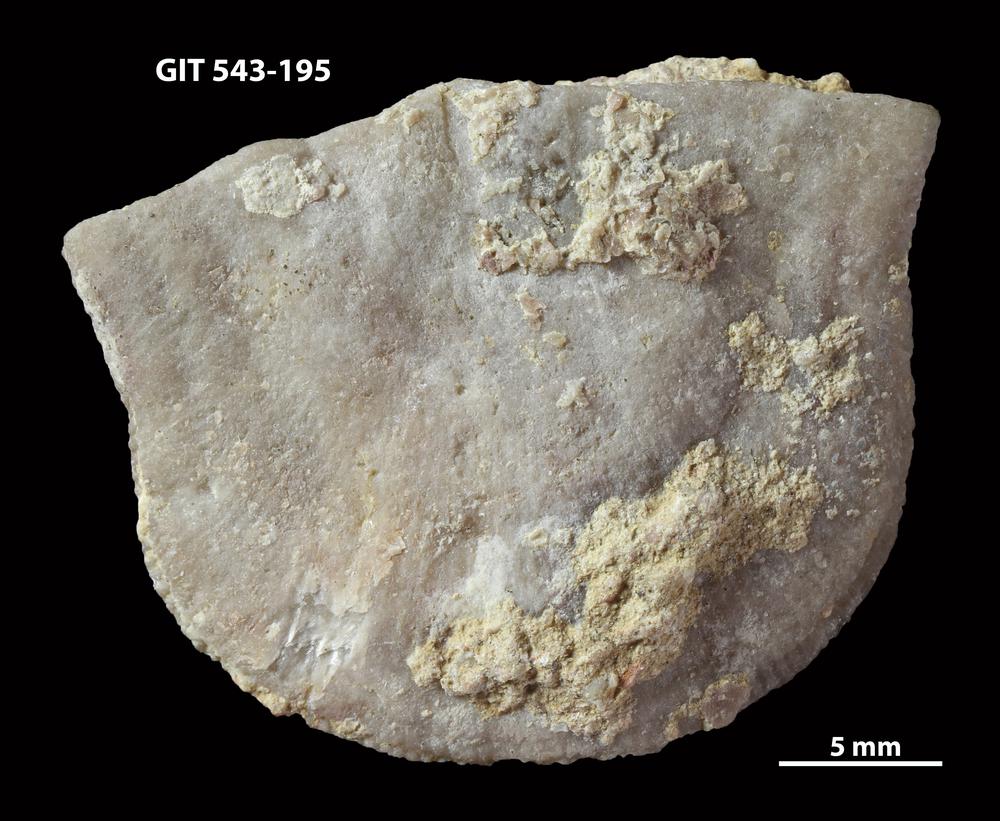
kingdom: Animalia
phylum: Brachiopoda
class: Rhynchonellata
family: Clitambonitidae
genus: Clinambon
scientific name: Clinambon anomalus
